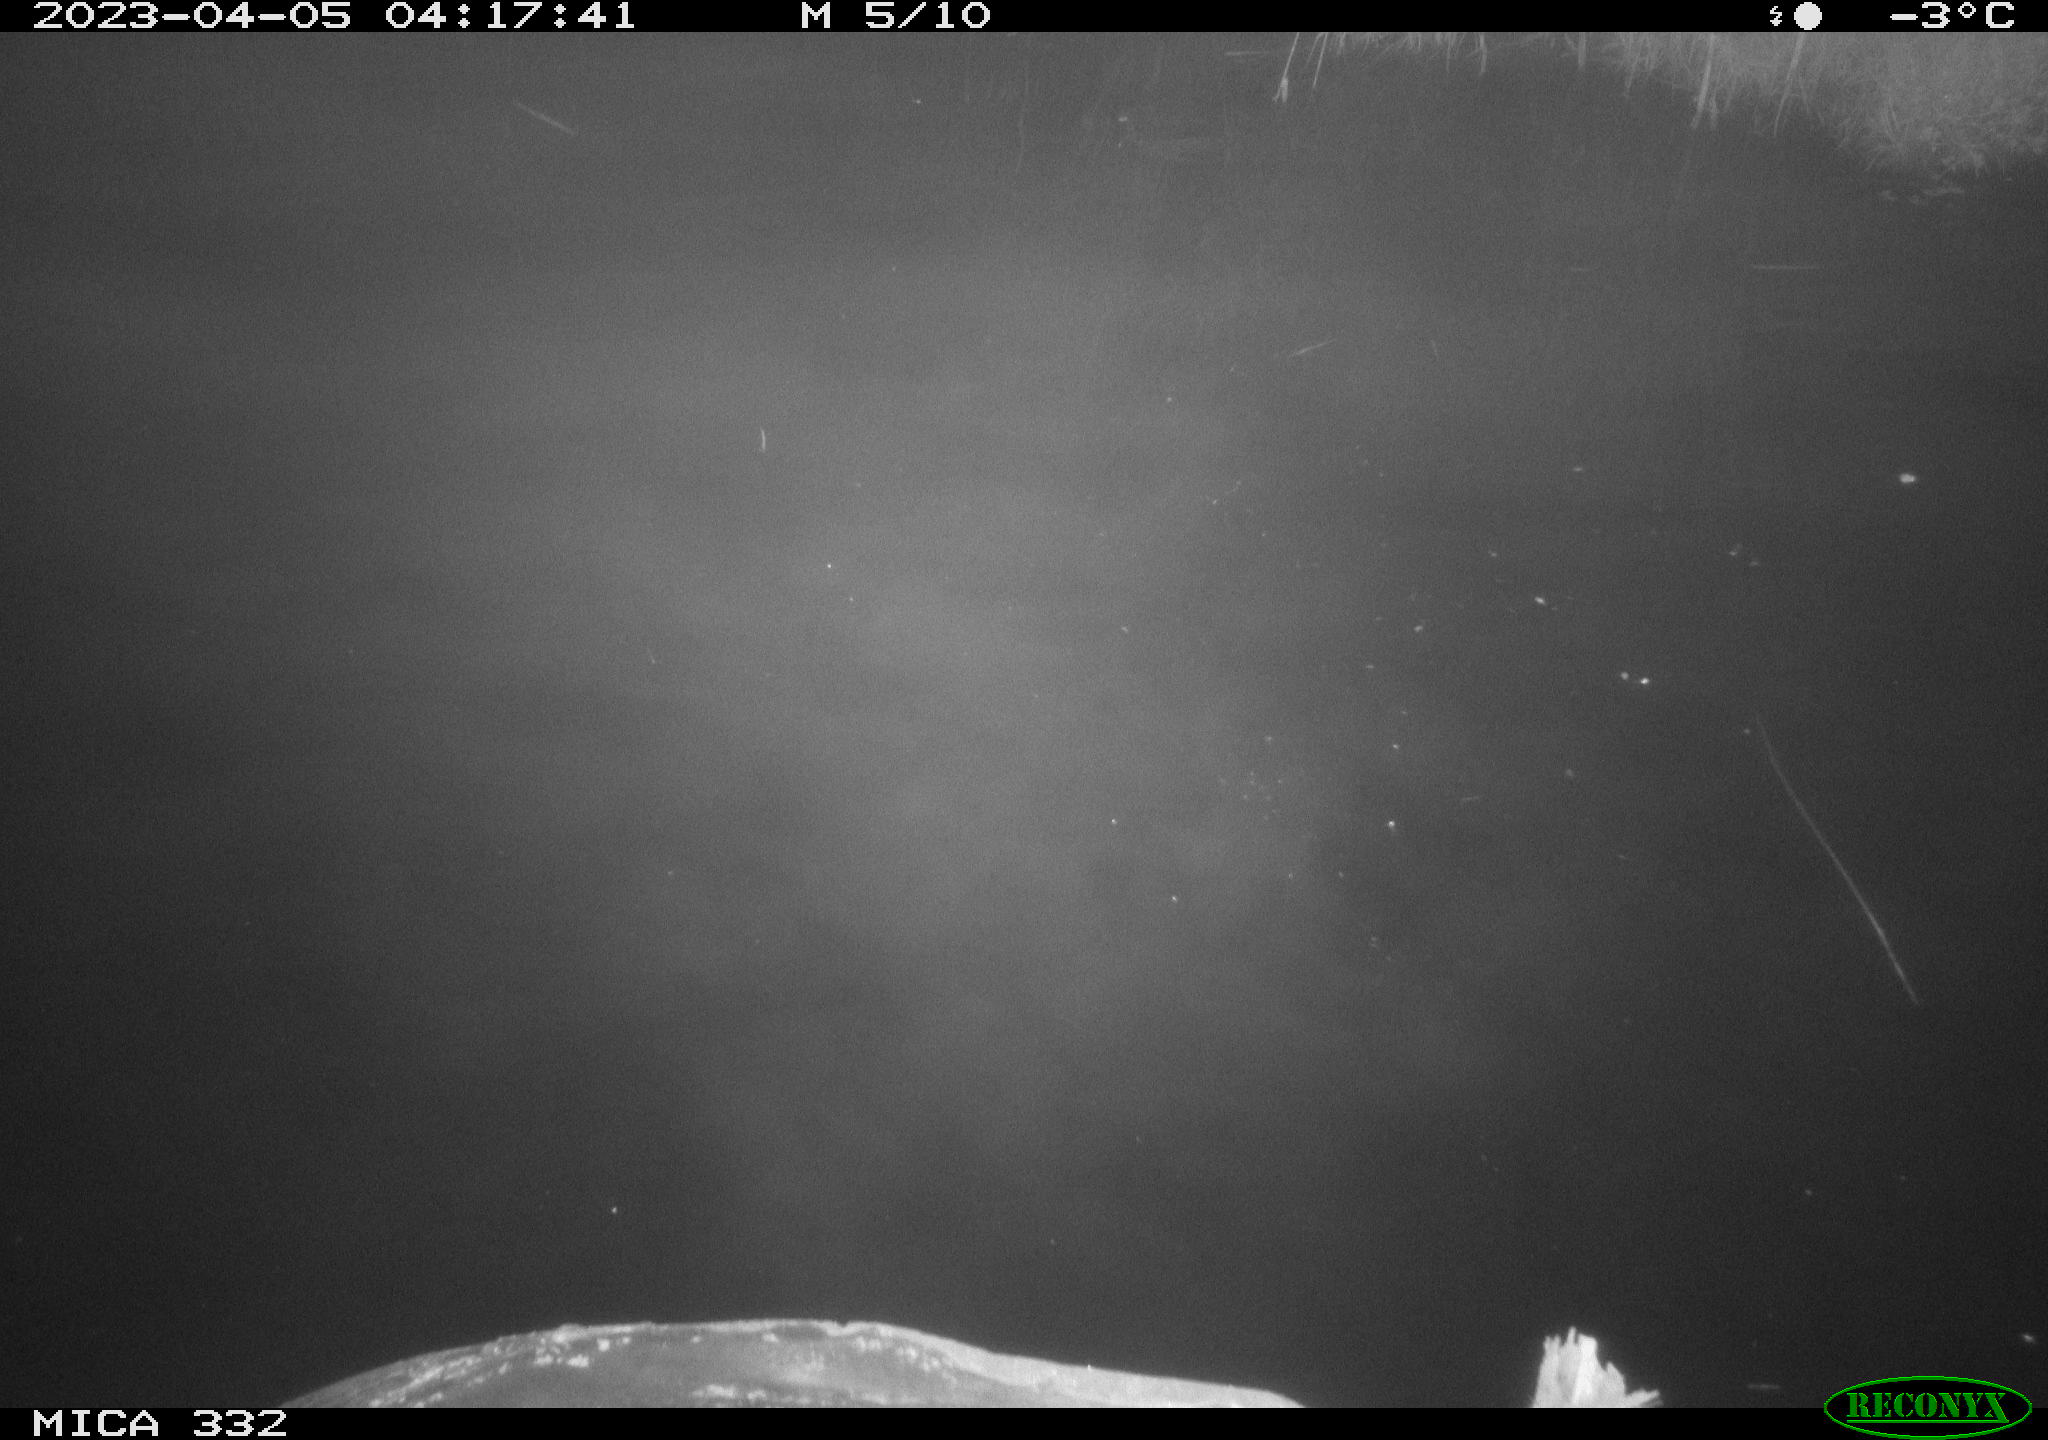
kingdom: Animalia
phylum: Chordata
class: Aves
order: Anseriformes
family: Anatidae
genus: Anas
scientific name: Anas platyrhynchos
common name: Mallard
